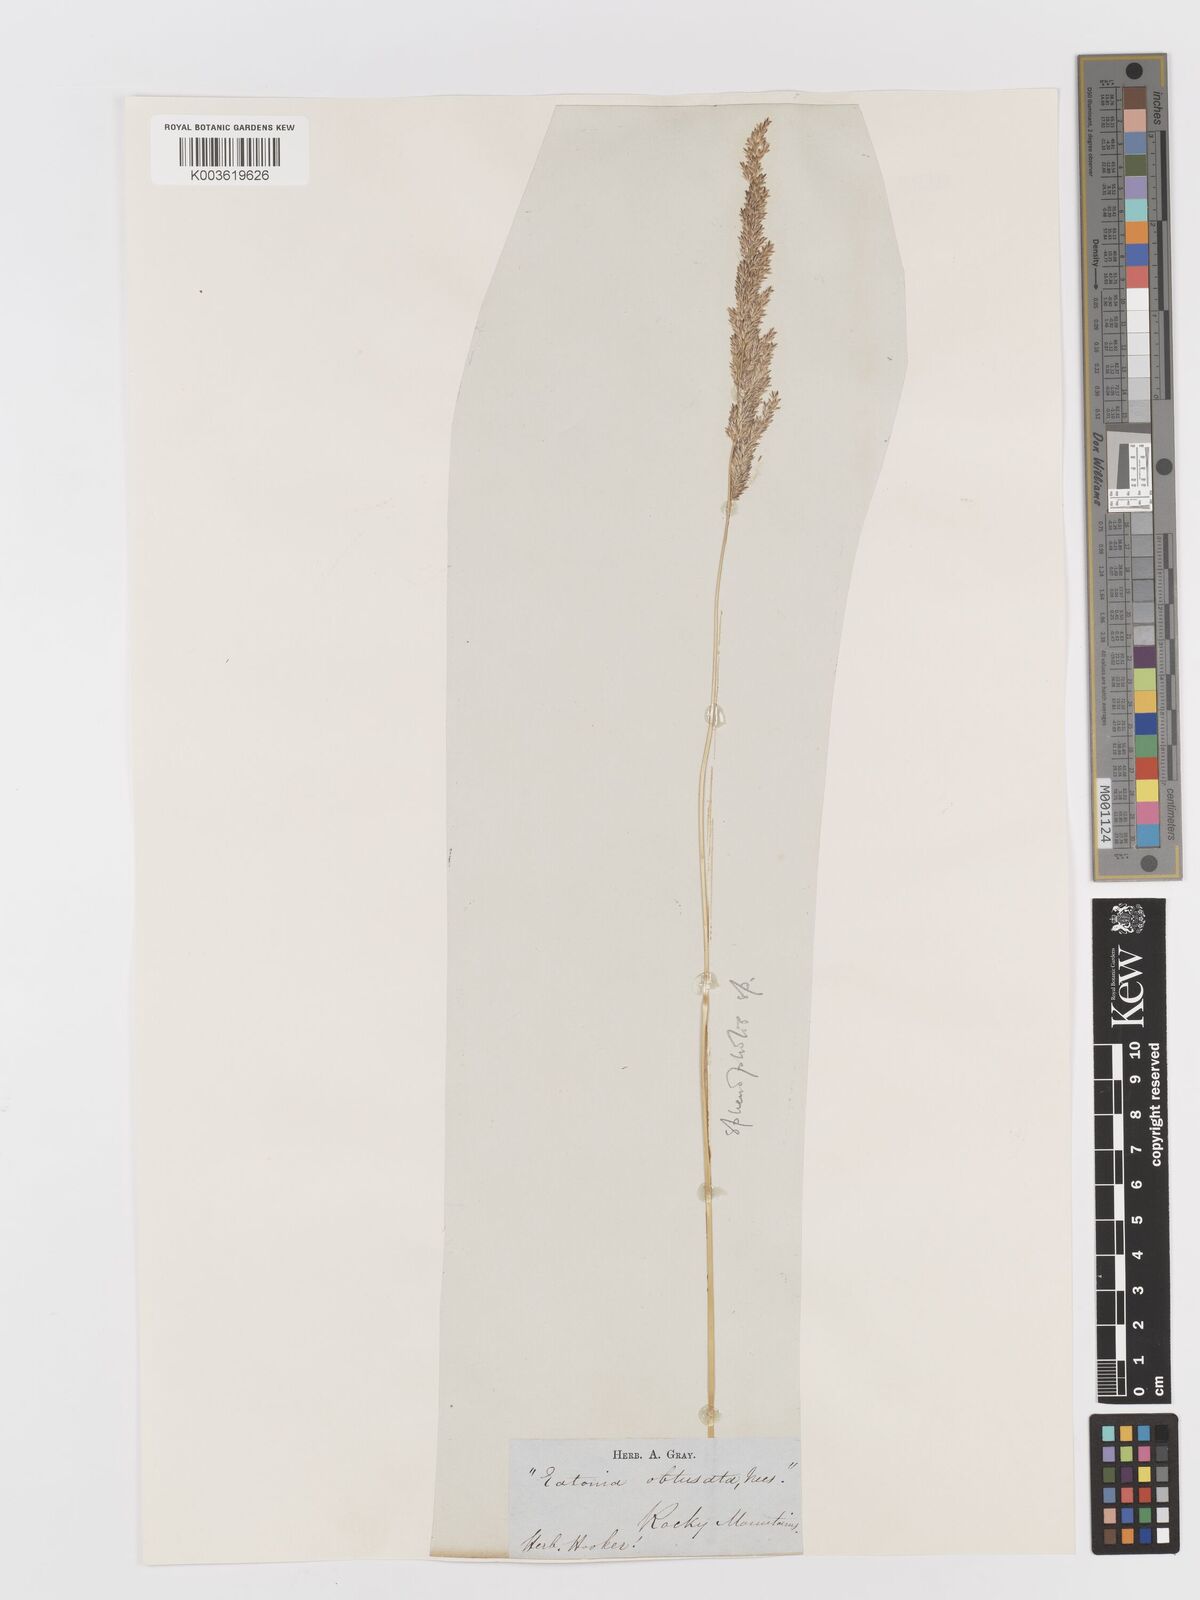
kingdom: Plantae
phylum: Tracheophyta
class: Liliopsida
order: Poales
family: Poaceae
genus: Sphenopholis
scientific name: Sphenopholis obtusata
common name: Prairie grass
